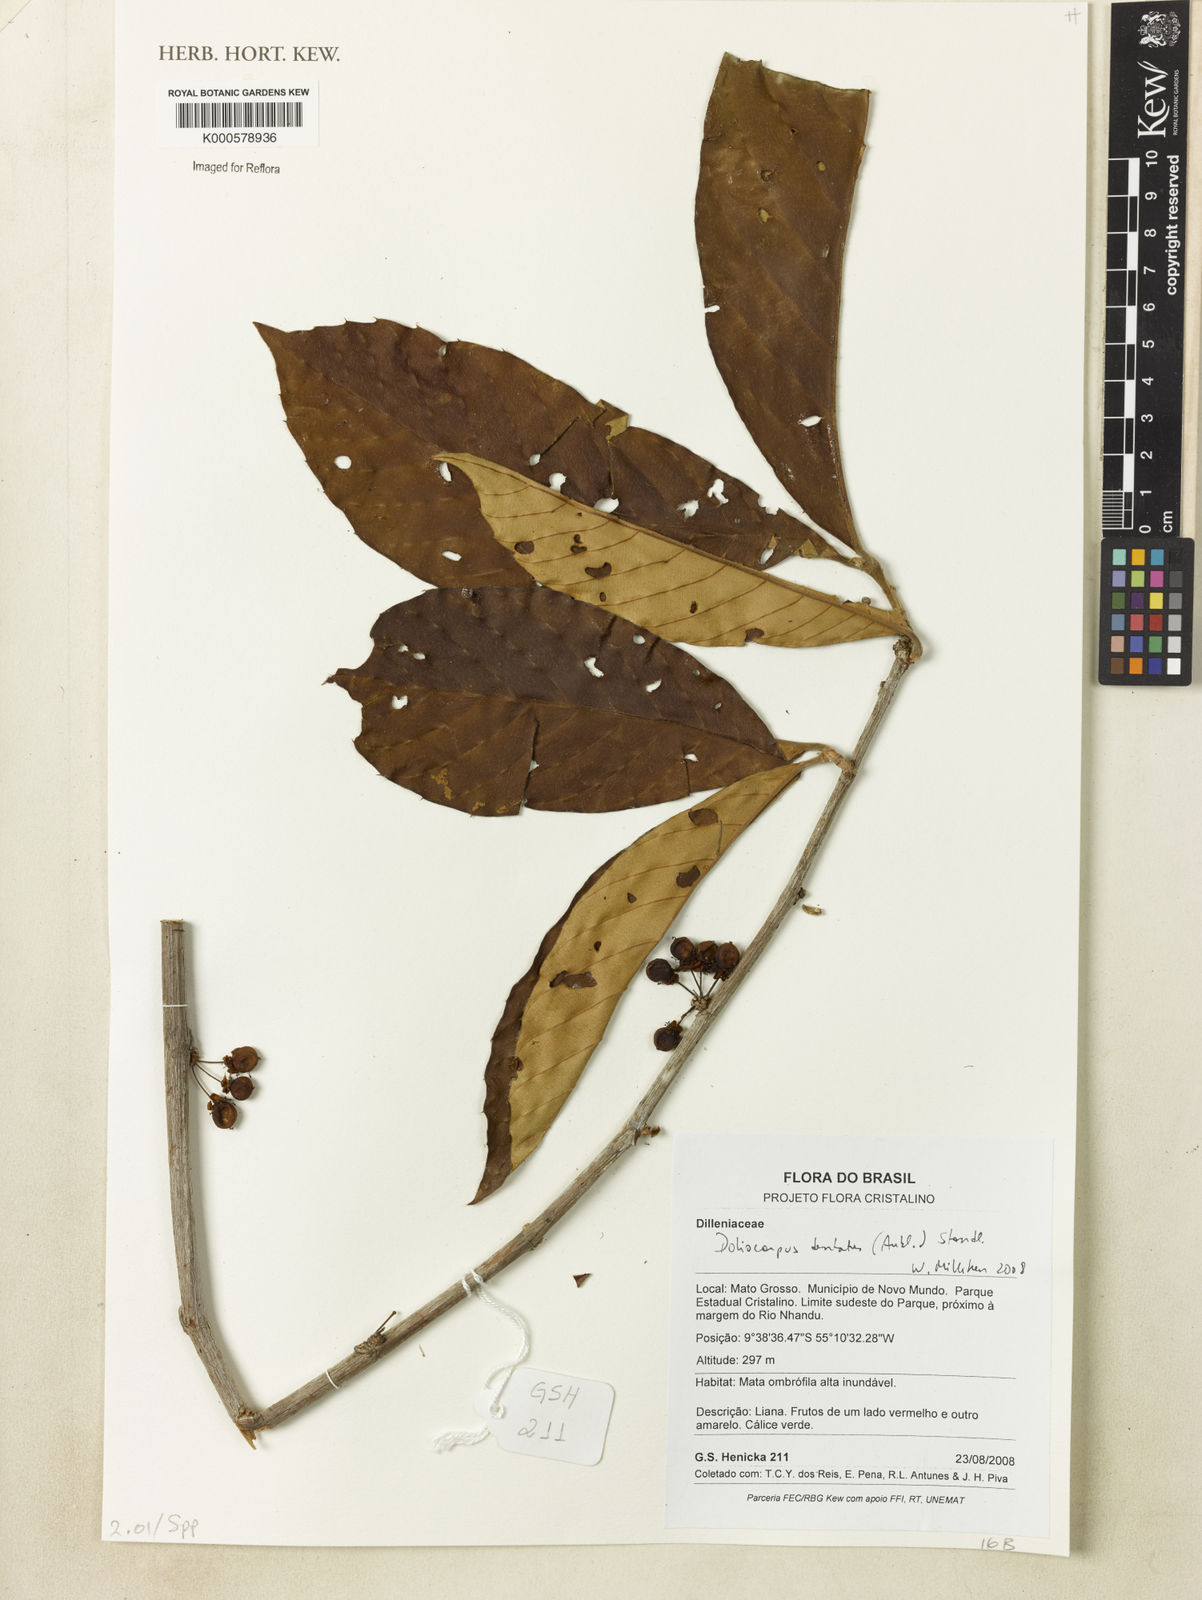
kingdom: Plantae
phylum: Tracheophyta
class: Magnoliopsida
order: Dilleniales
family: Dilleniaceae
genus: Doliocarpus
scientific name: Doliocarpus dentatus
